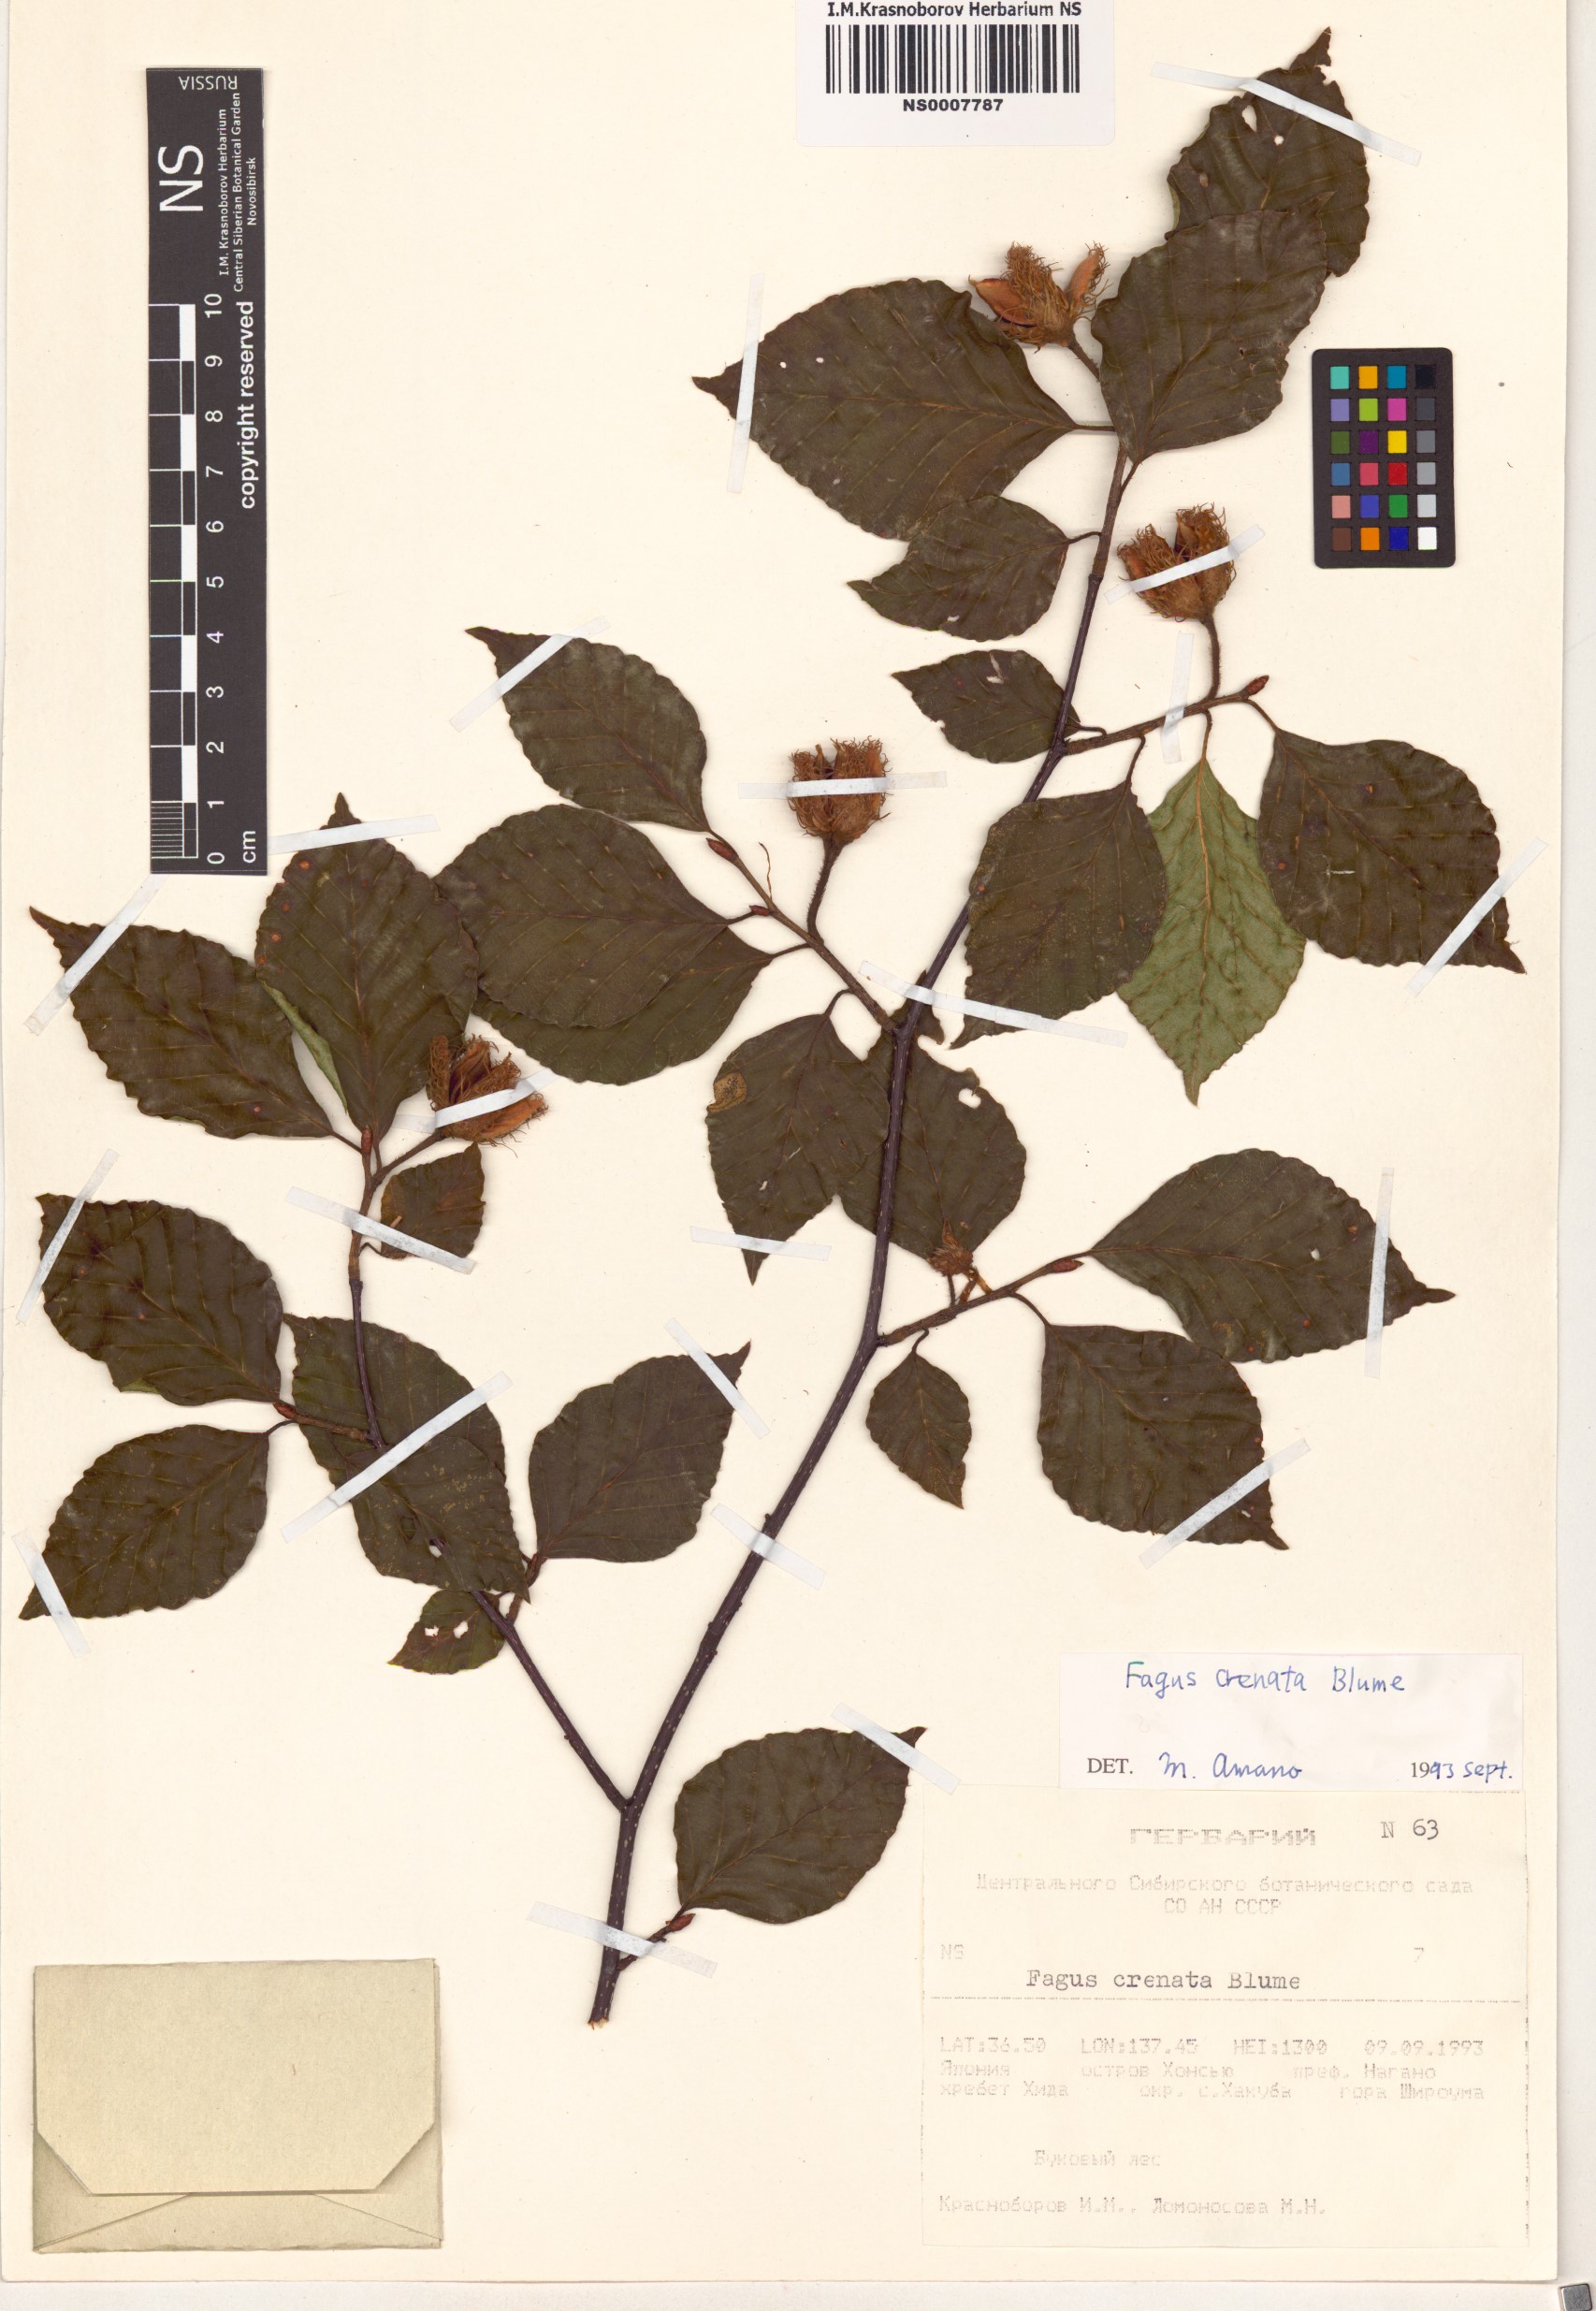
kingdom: Plantae
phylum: Tracheophyta
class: Magnoliopsida
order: Fagales
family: Fagaceae
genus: Fagus
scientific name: Fagus crenata
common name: Japanese beech
